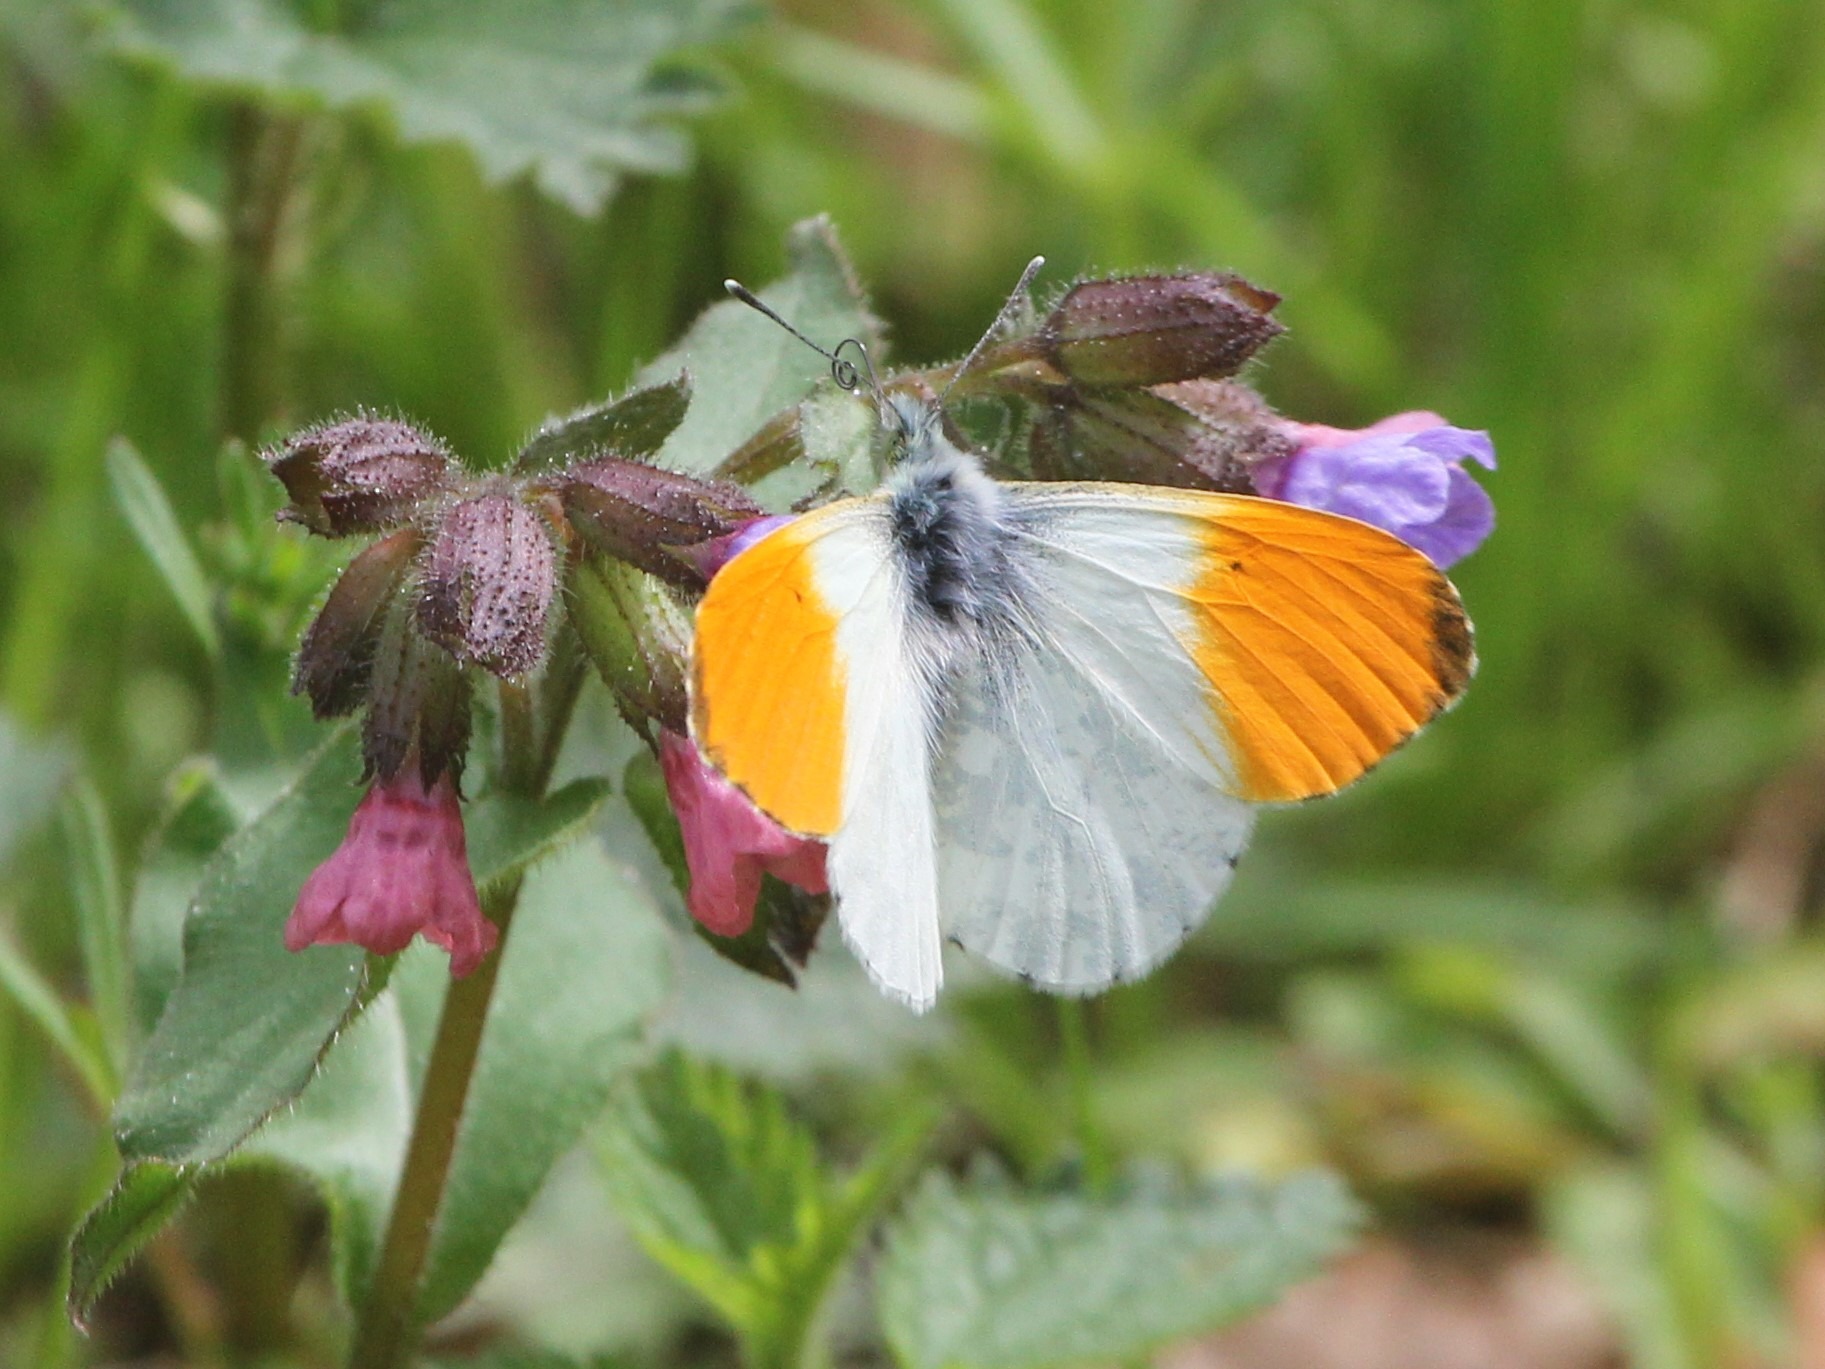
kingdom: Animalia
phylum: Arthropoda
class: Insecta
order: Lepidoptera
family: Pieridae
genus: Anthocharis
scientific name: Anthocharis cardamines
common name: Aurora
